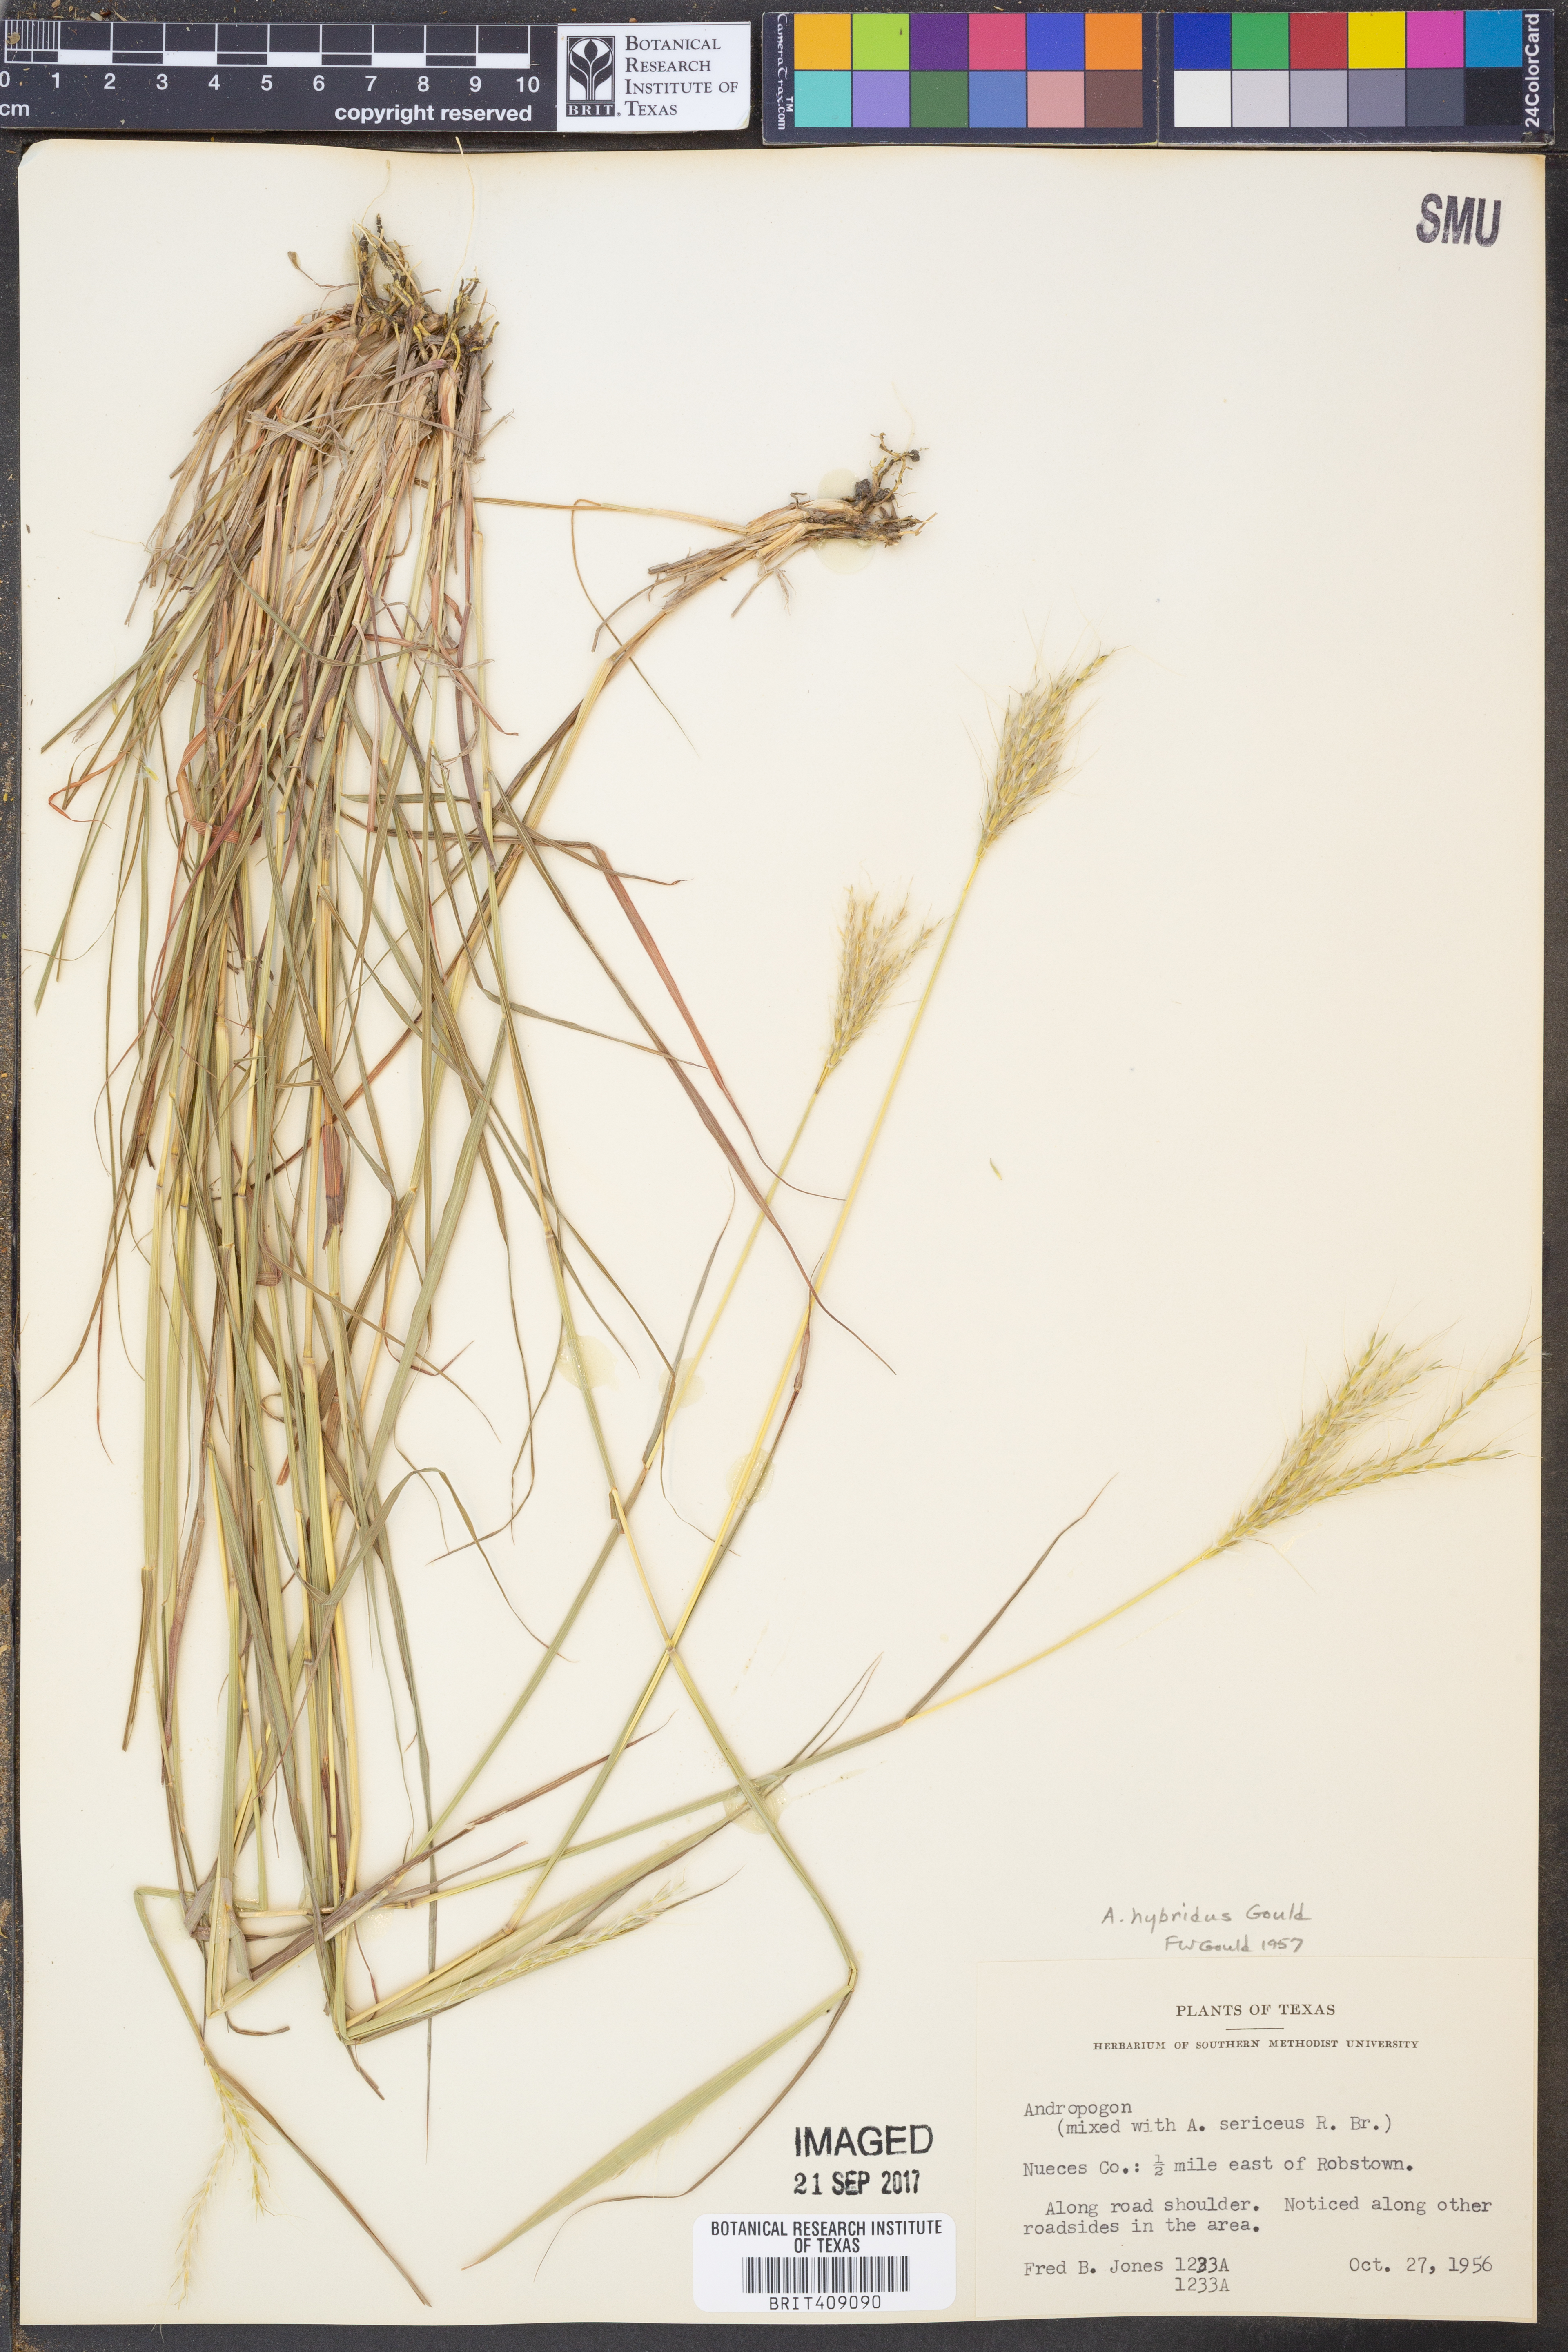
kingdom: Plantae
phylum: Tracheophyta
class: Liliopsida
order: Poales
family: Poaceae
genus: Andropogon
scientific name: Andropogon
